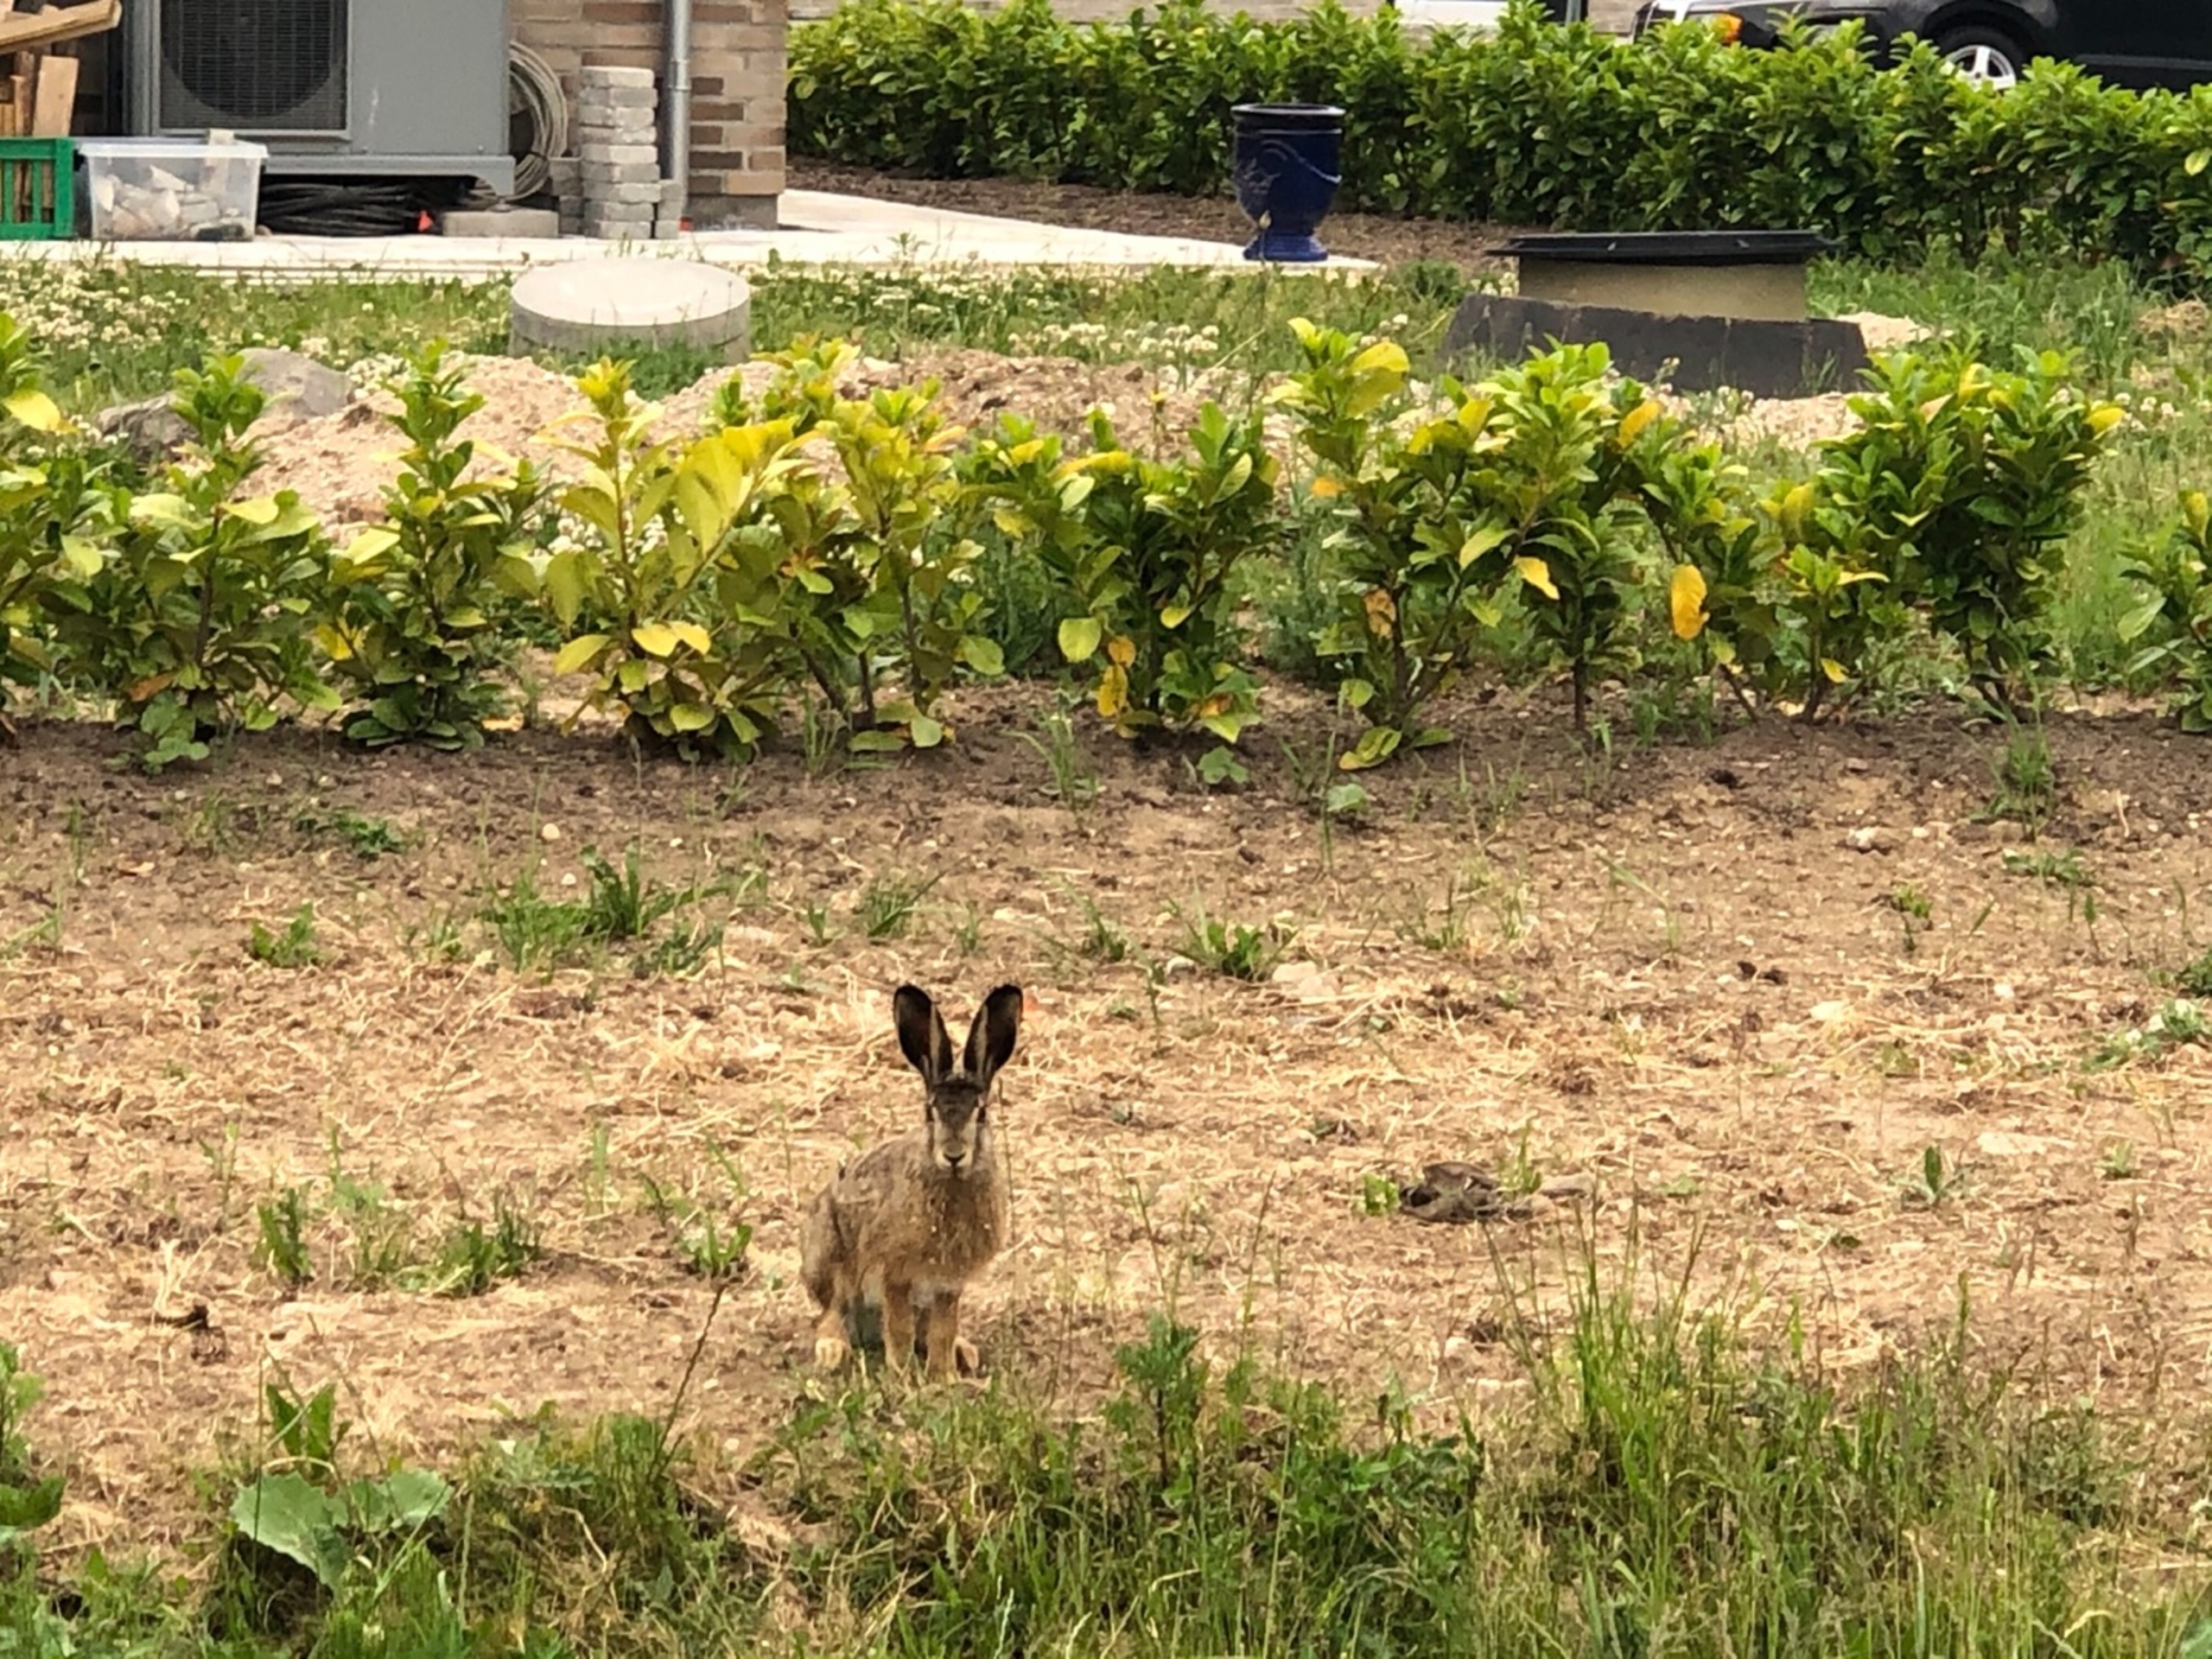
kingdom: Animalia
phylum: Chordata
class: Mammalia
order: Lagomorpha
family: Leporidae
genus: Lepus
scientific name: Lepus europaeus
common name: Hare
